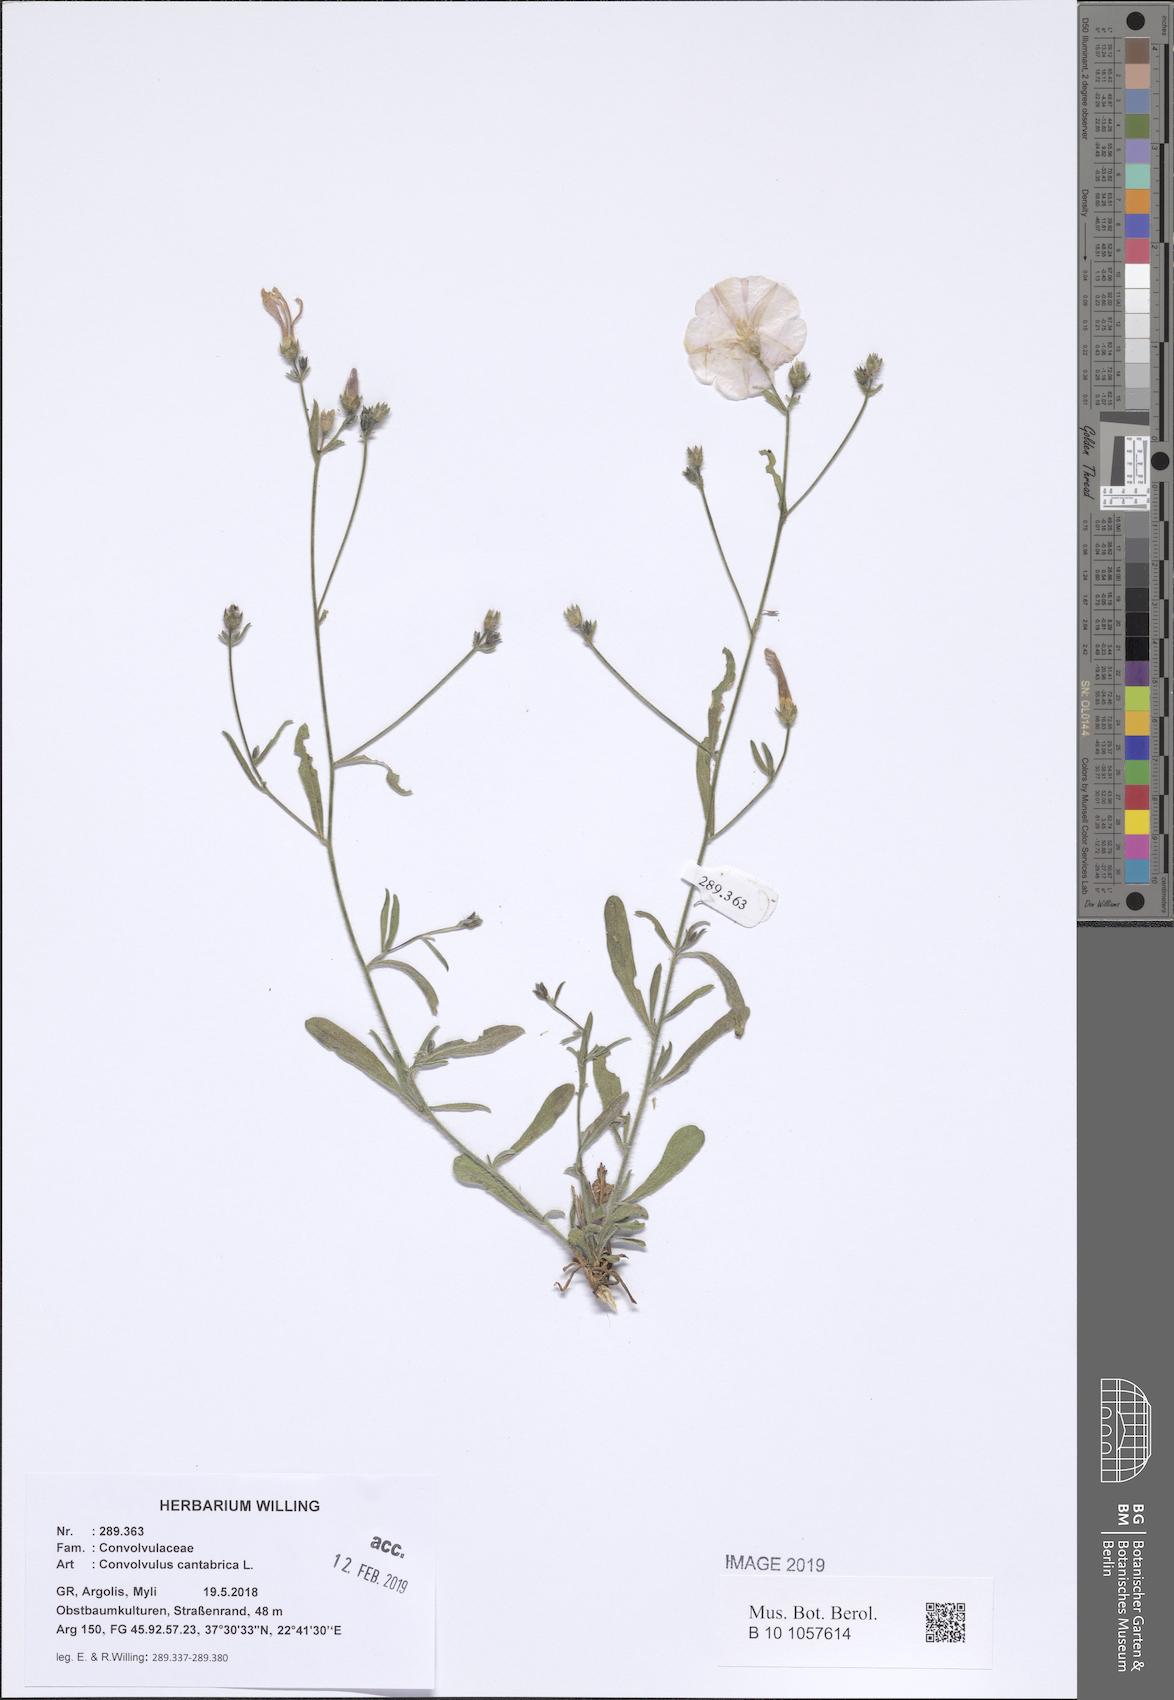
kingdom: Plantae
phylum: Tracheophyta
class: Magnoliopsida
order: Solanales
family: Convolvulaceae
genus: Convolvulus
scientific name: Convolvulus cantabrica
